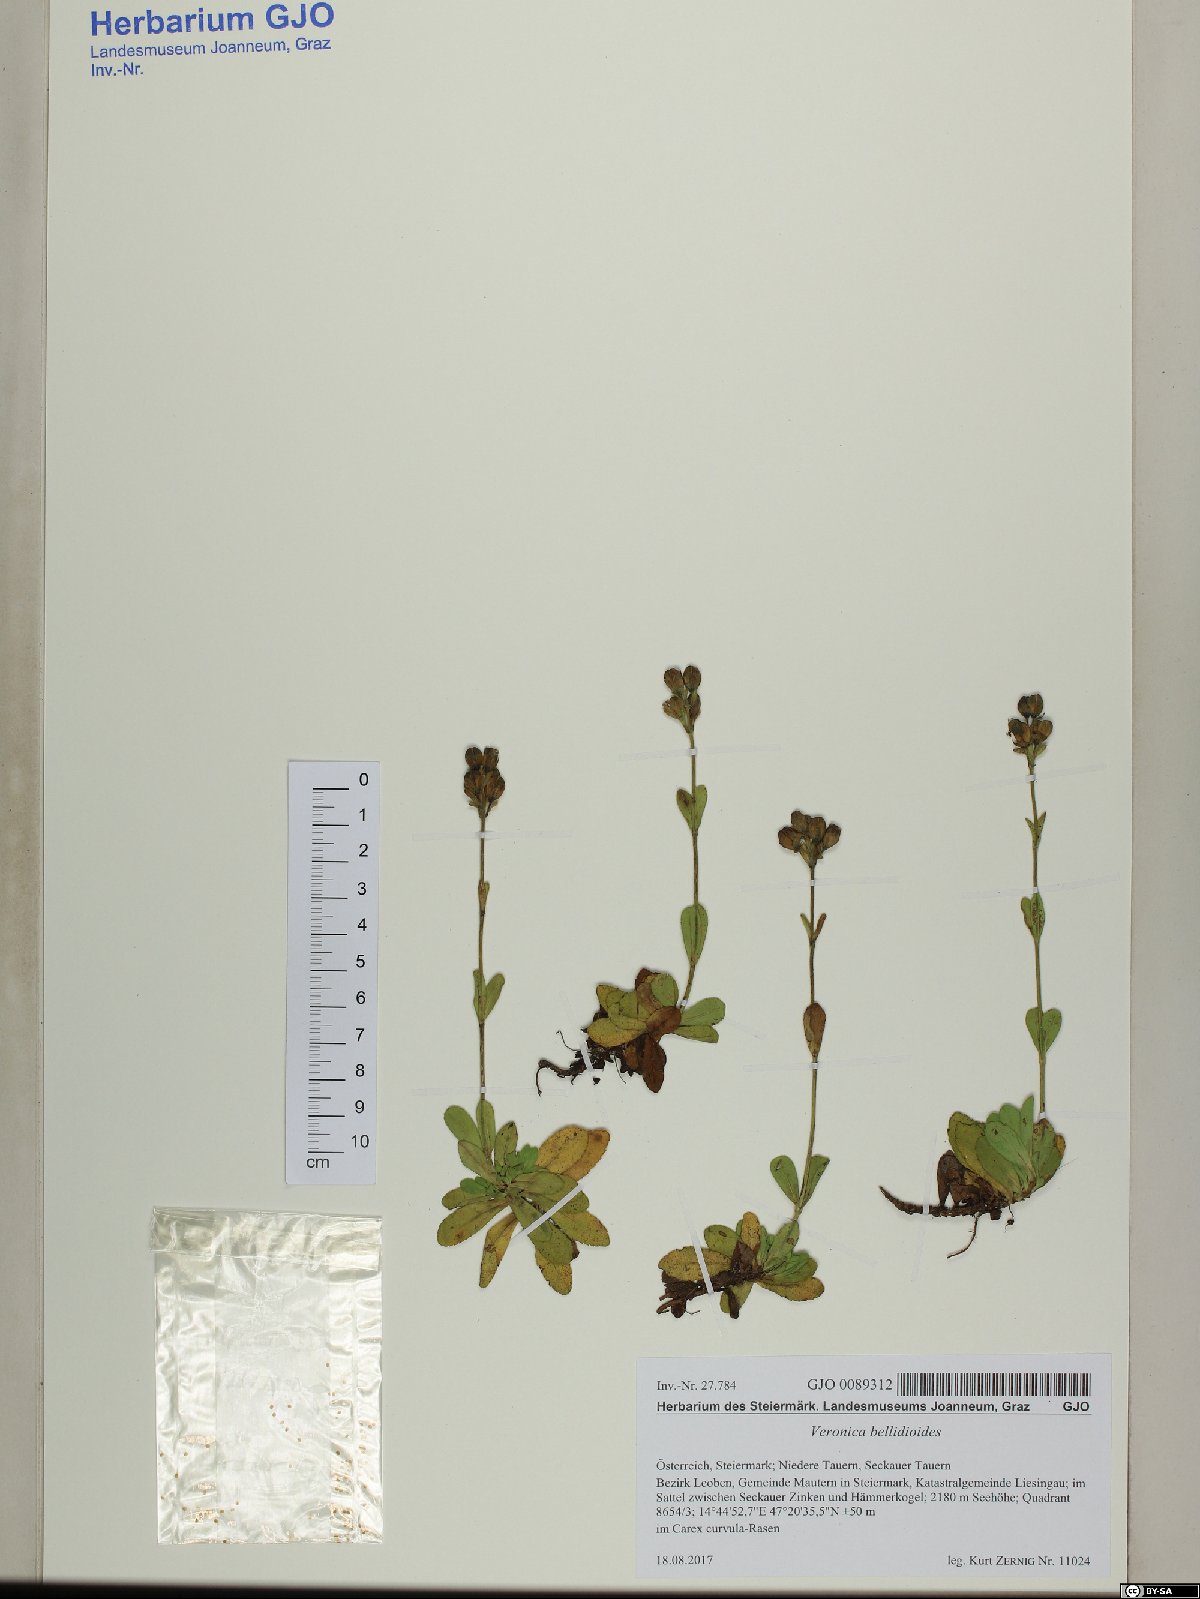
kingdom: Plantae
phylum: Tracheophyta
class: Magnoliopsida
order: Lamiales
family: Plantaginaceae
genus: Veronica
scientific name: Veronica bellidioides
